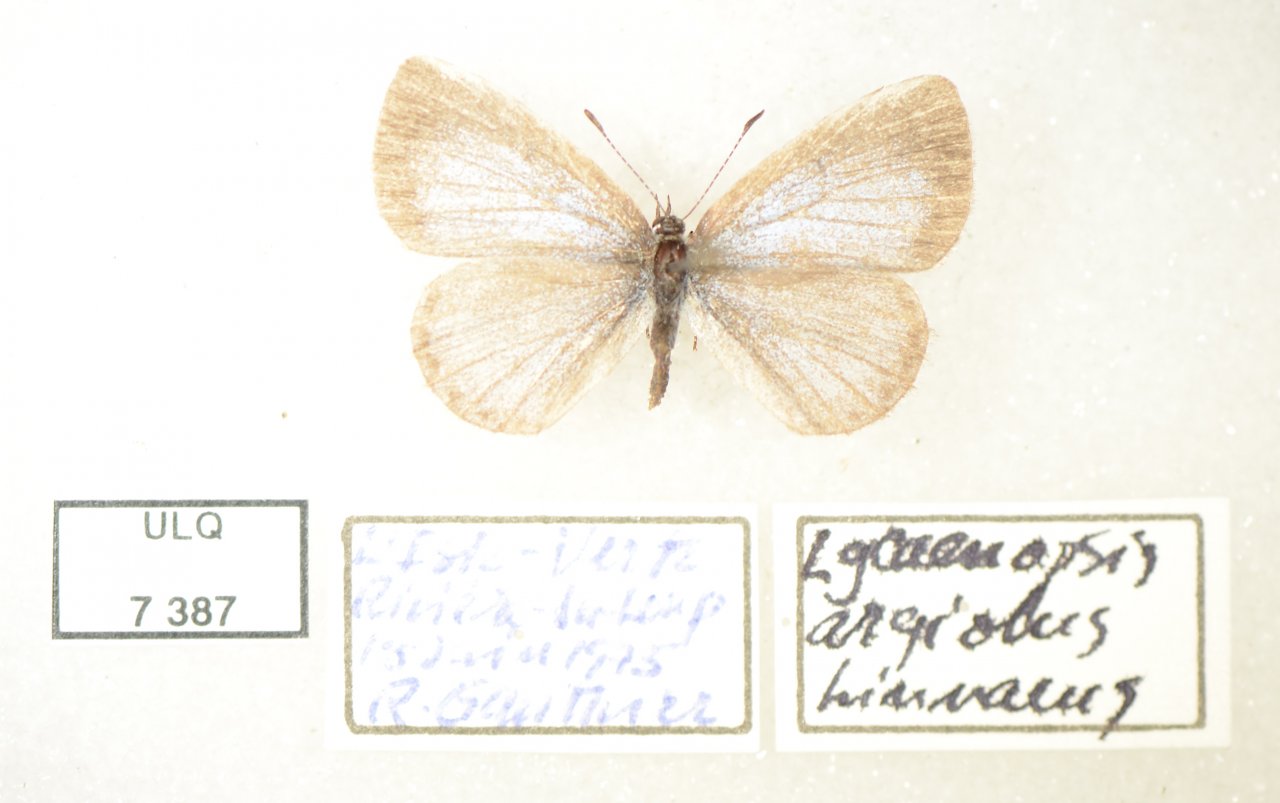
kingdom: Animalia
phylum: Arthropoda
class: Insecta
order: Lepidoptera
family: Lycaenidae
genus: Celastrina
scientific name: Celastrina lucia
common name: Northern Spring Azure
